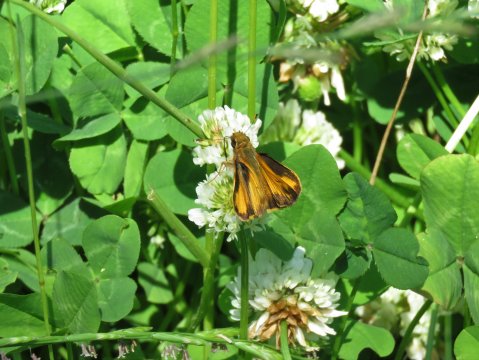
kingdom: Animalia
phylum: Arthropoda
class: Insecta
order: Lepidoptera
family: Hesperiidae
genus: Lon
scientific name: Lon zabulon
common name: Zabulon Skipper
